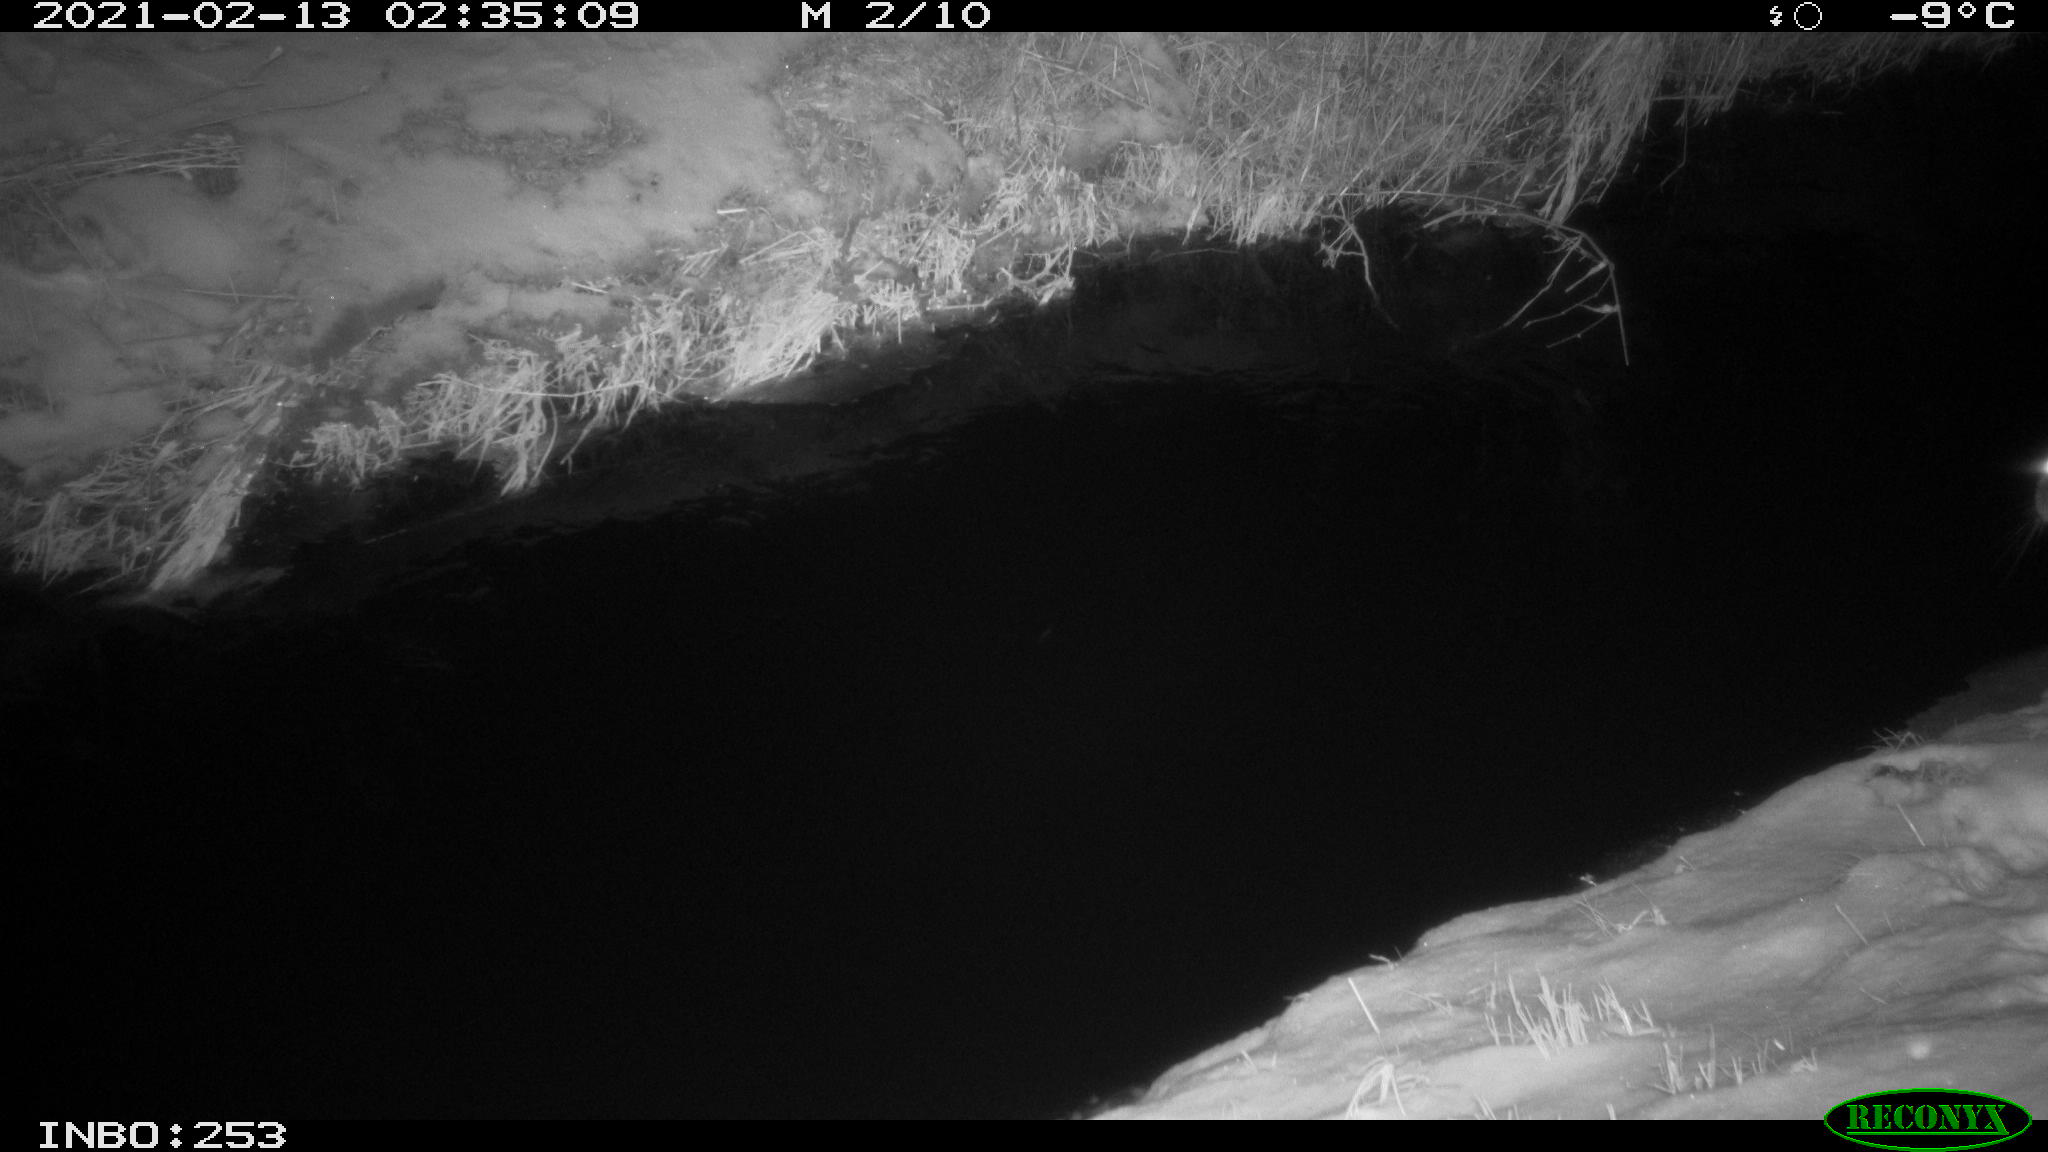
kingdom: Animalia
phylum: Chordata
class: Mammalia
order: Lagomorpha
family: Leporidae
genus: Oryctolagus
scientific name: Oryctolagus cuniculus
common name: European rabbit
